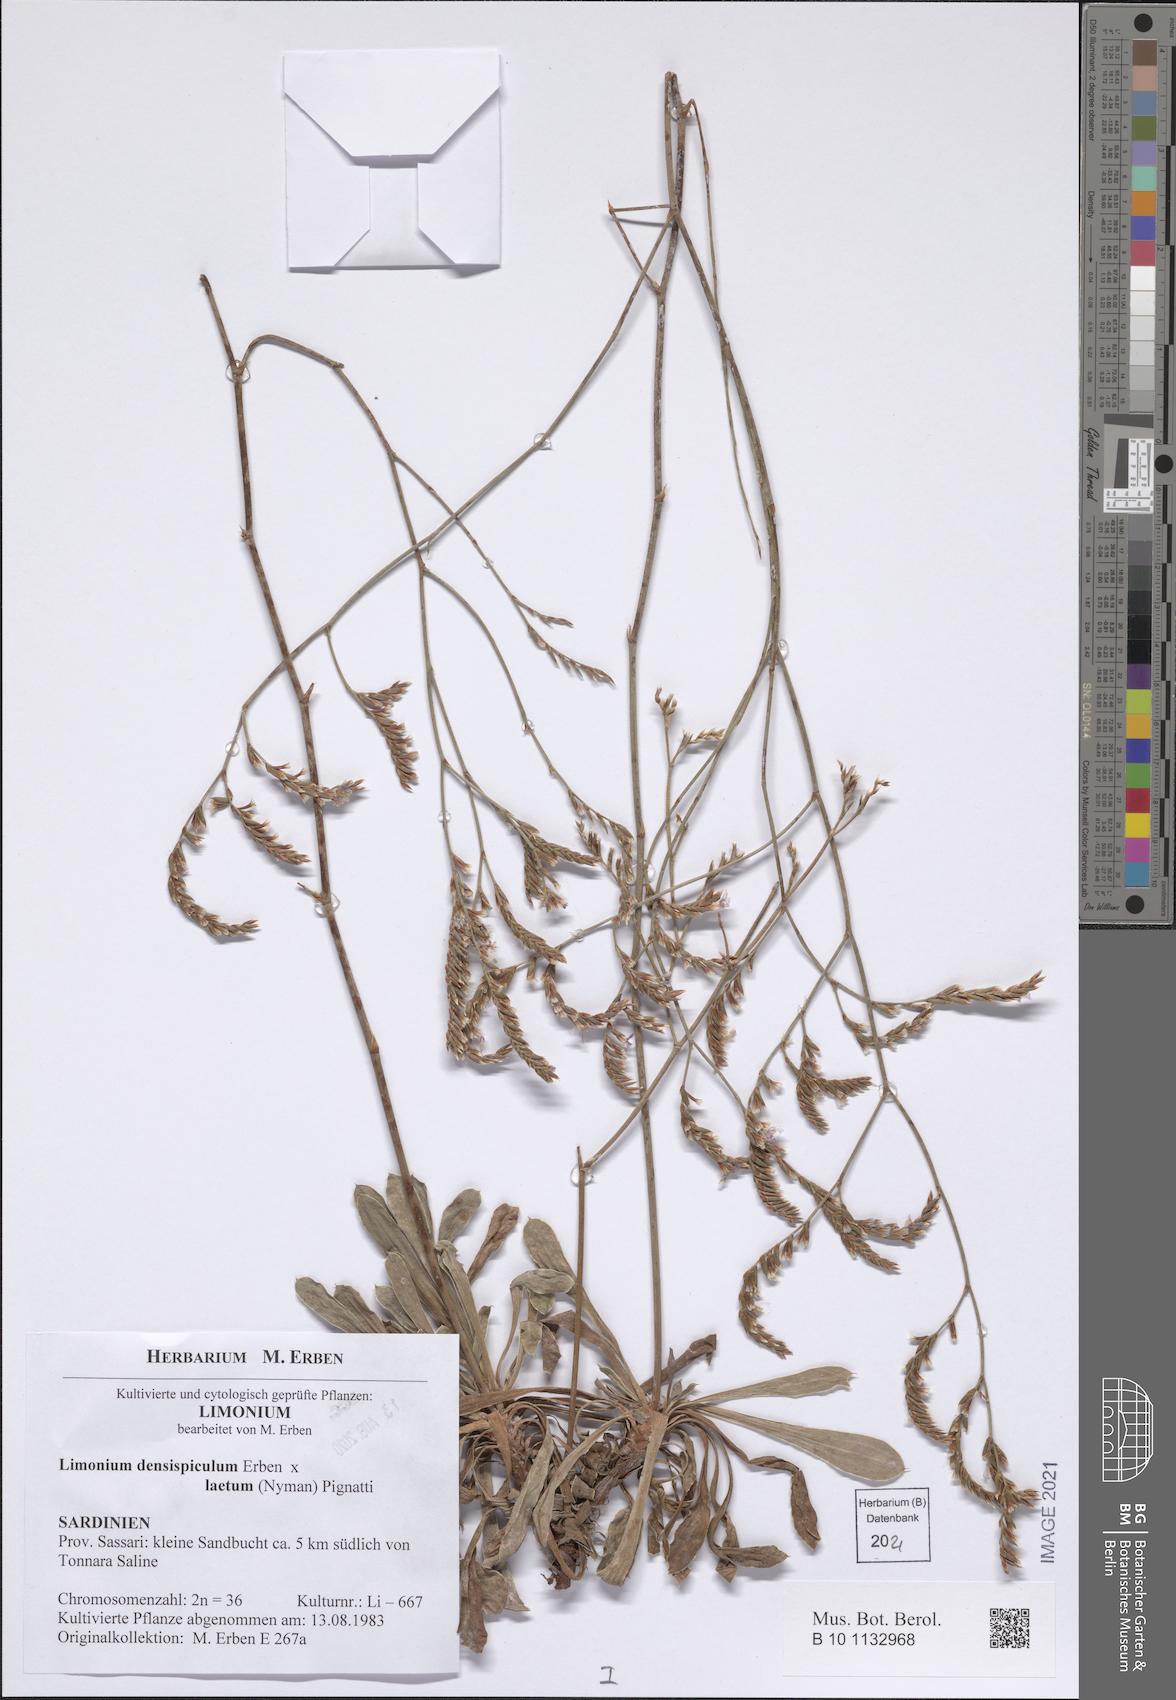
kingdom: Plantae
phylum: Tracheophyta
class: Magnoliopsida
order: Caryophyllales
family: Plumbaginaceae
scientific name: Plumbaginaceae
